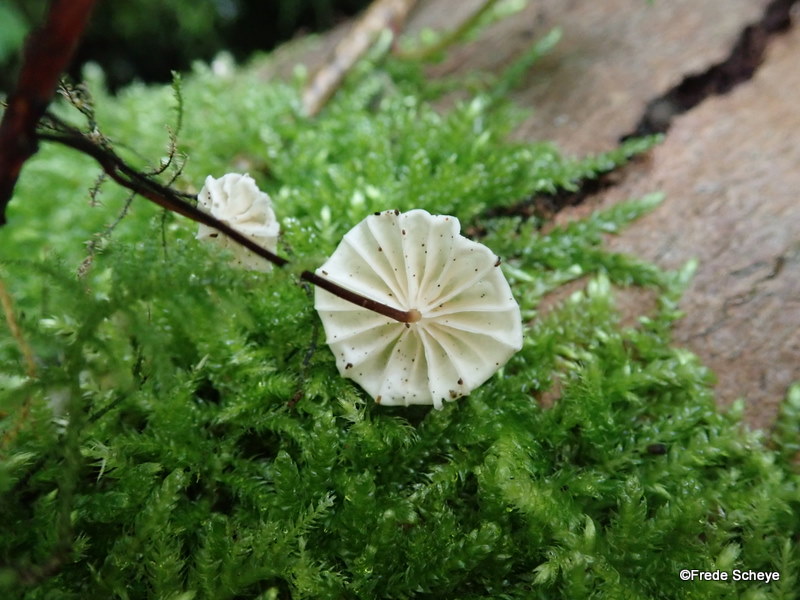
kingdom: Fungi
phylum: Basidiomycota
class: Agaricomycetes
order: Agaricales
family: Omphalotaceae
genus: Gymnopus
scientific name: Gymnopus androsaceus
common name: trådstokket fladhat
